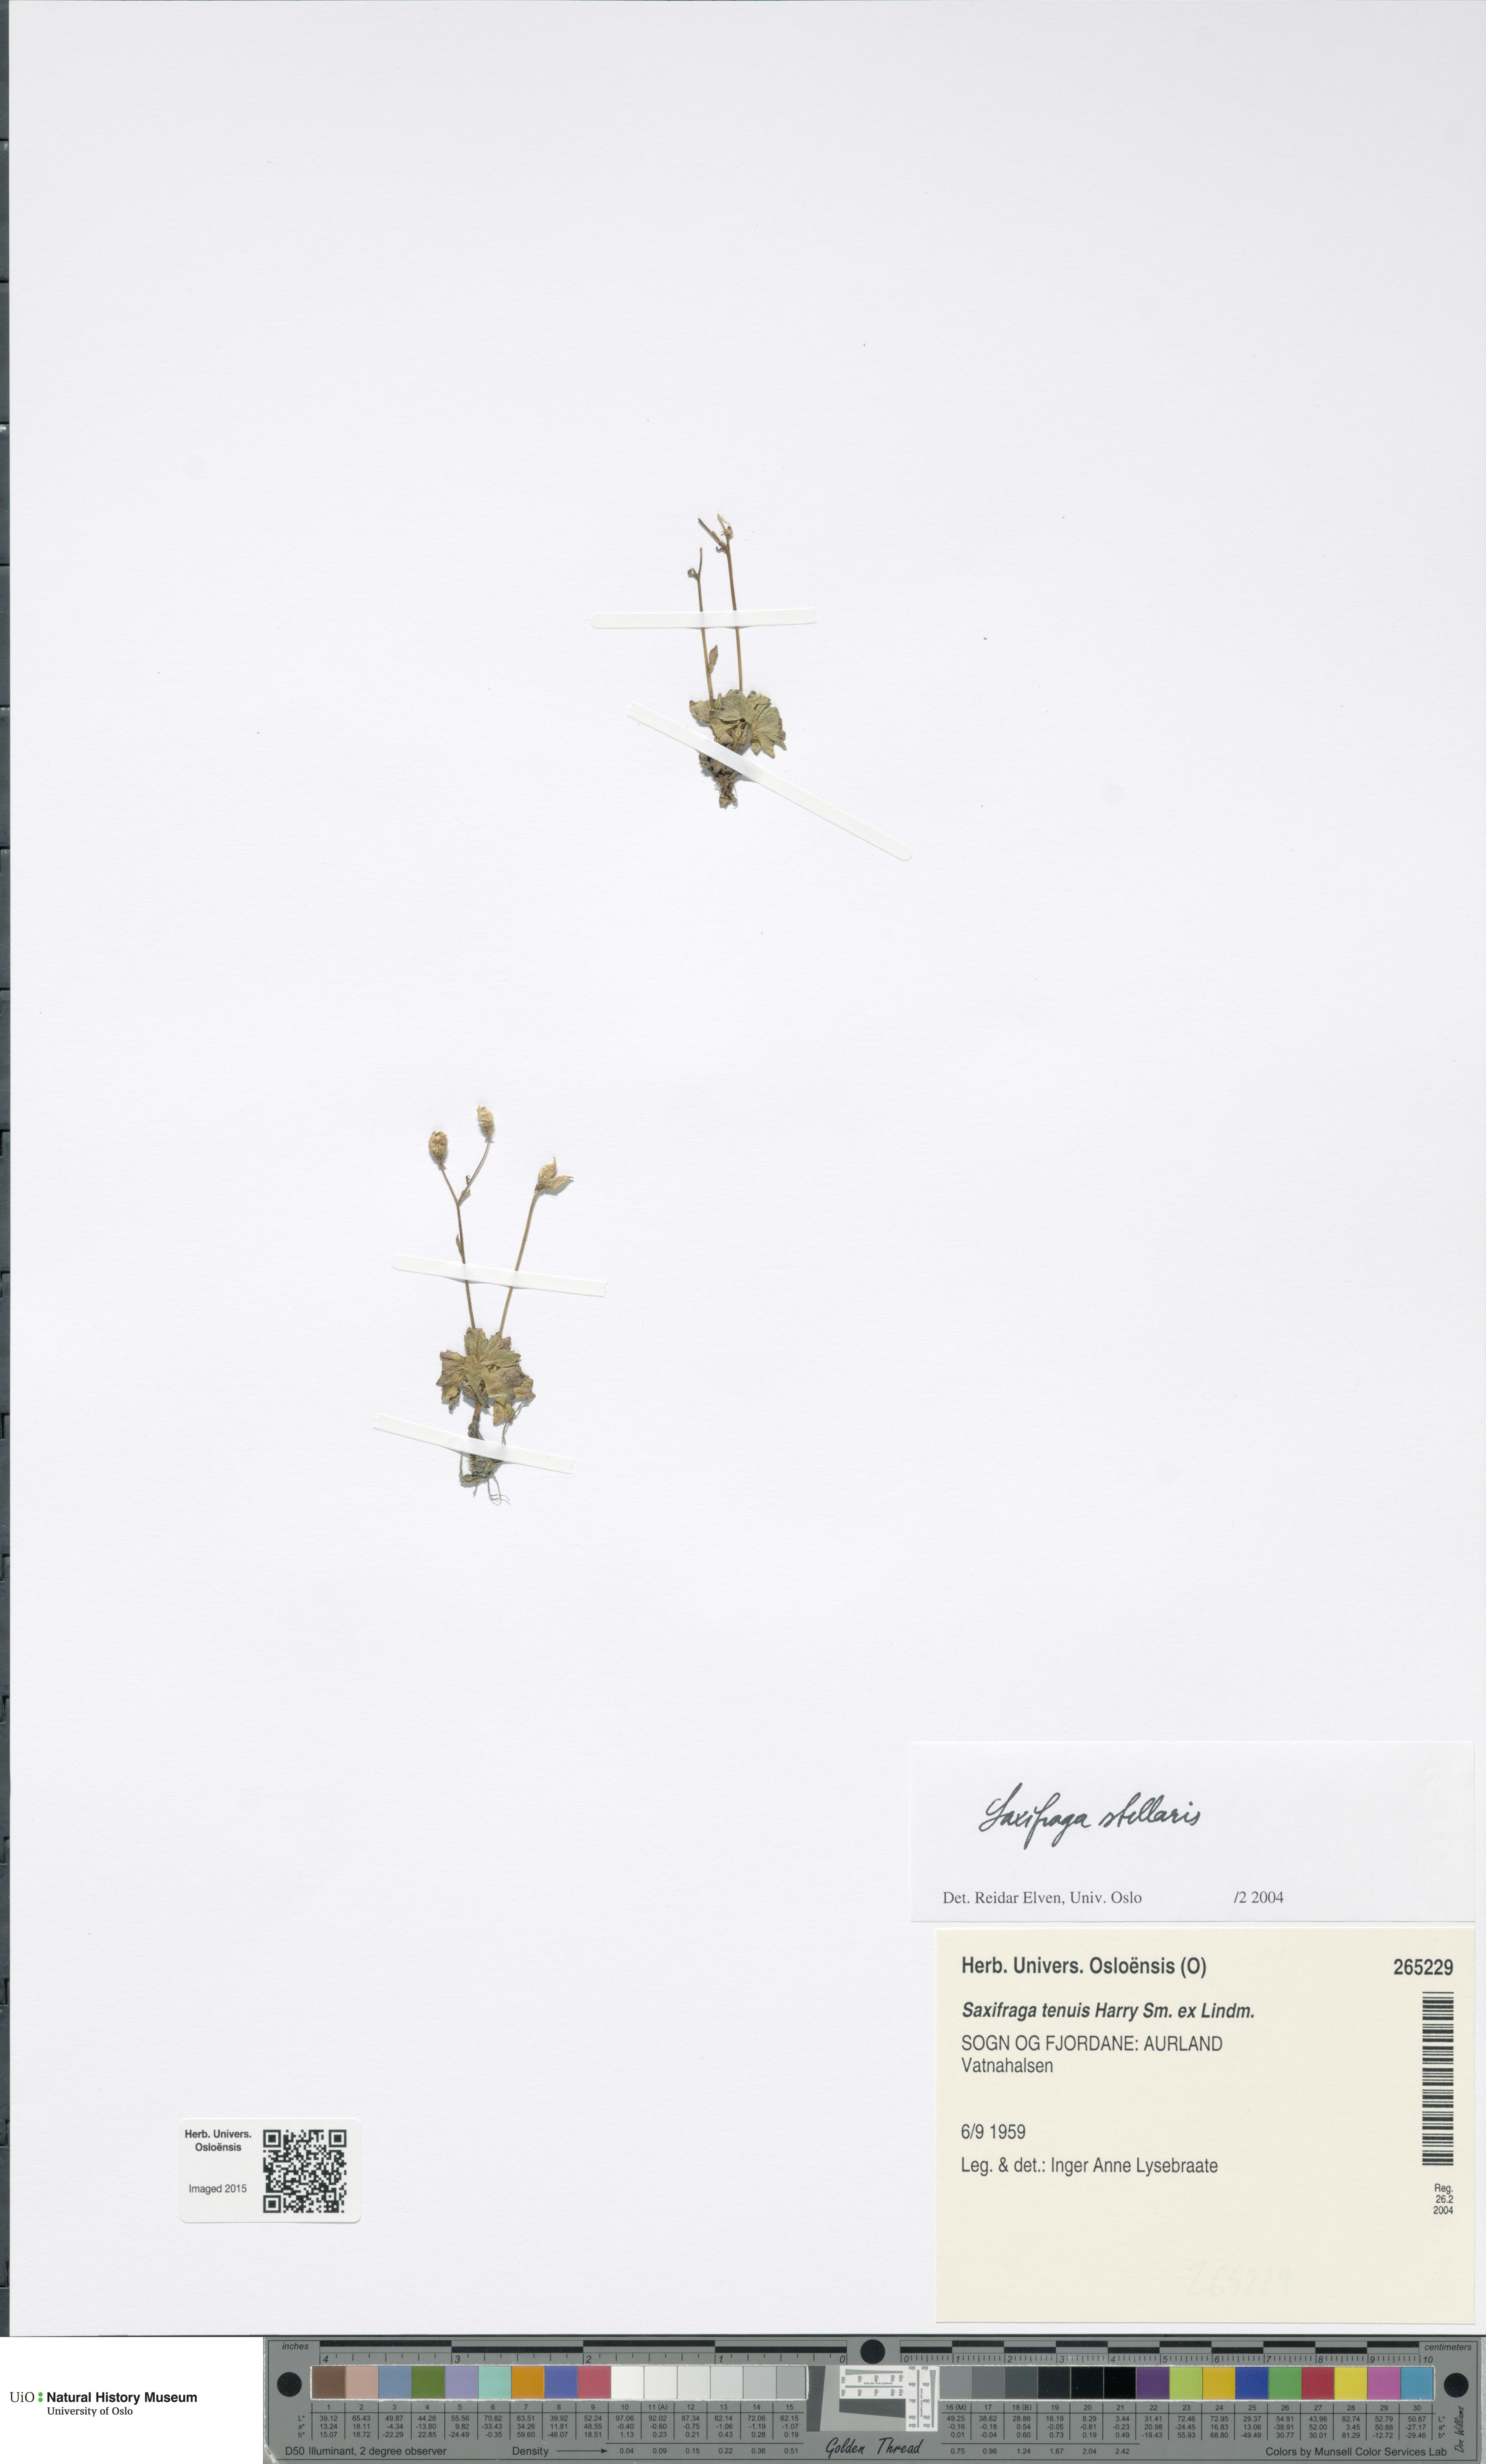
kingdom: Plantae
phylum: Tracheophyta
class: Magnoliopsida
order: Saxifragales
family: Saxifragaceae
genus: Micranthes
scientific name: Micranthes stellaris
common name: Starry saxifrage
